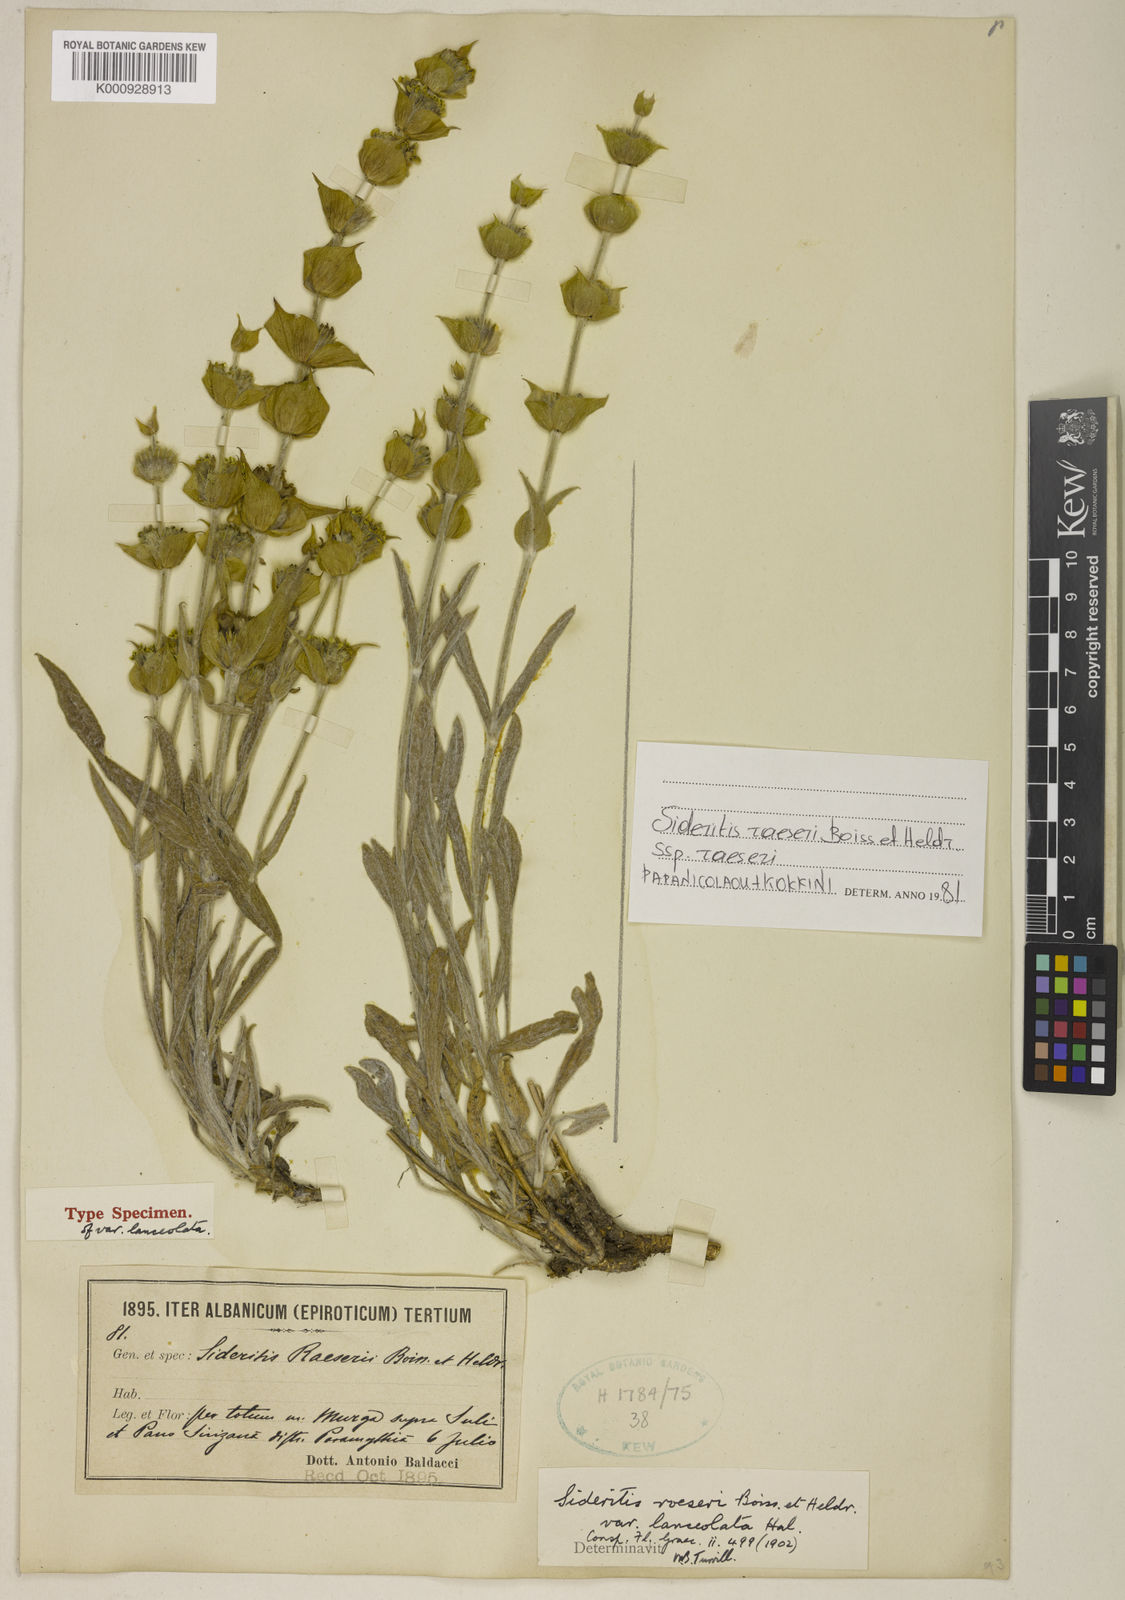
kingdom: Plantae
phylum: Tracheophyta
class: Magnoliopsida
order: Lamiales
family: Lamiaceae
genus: Sideritis
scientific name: Sideritis syriaca
